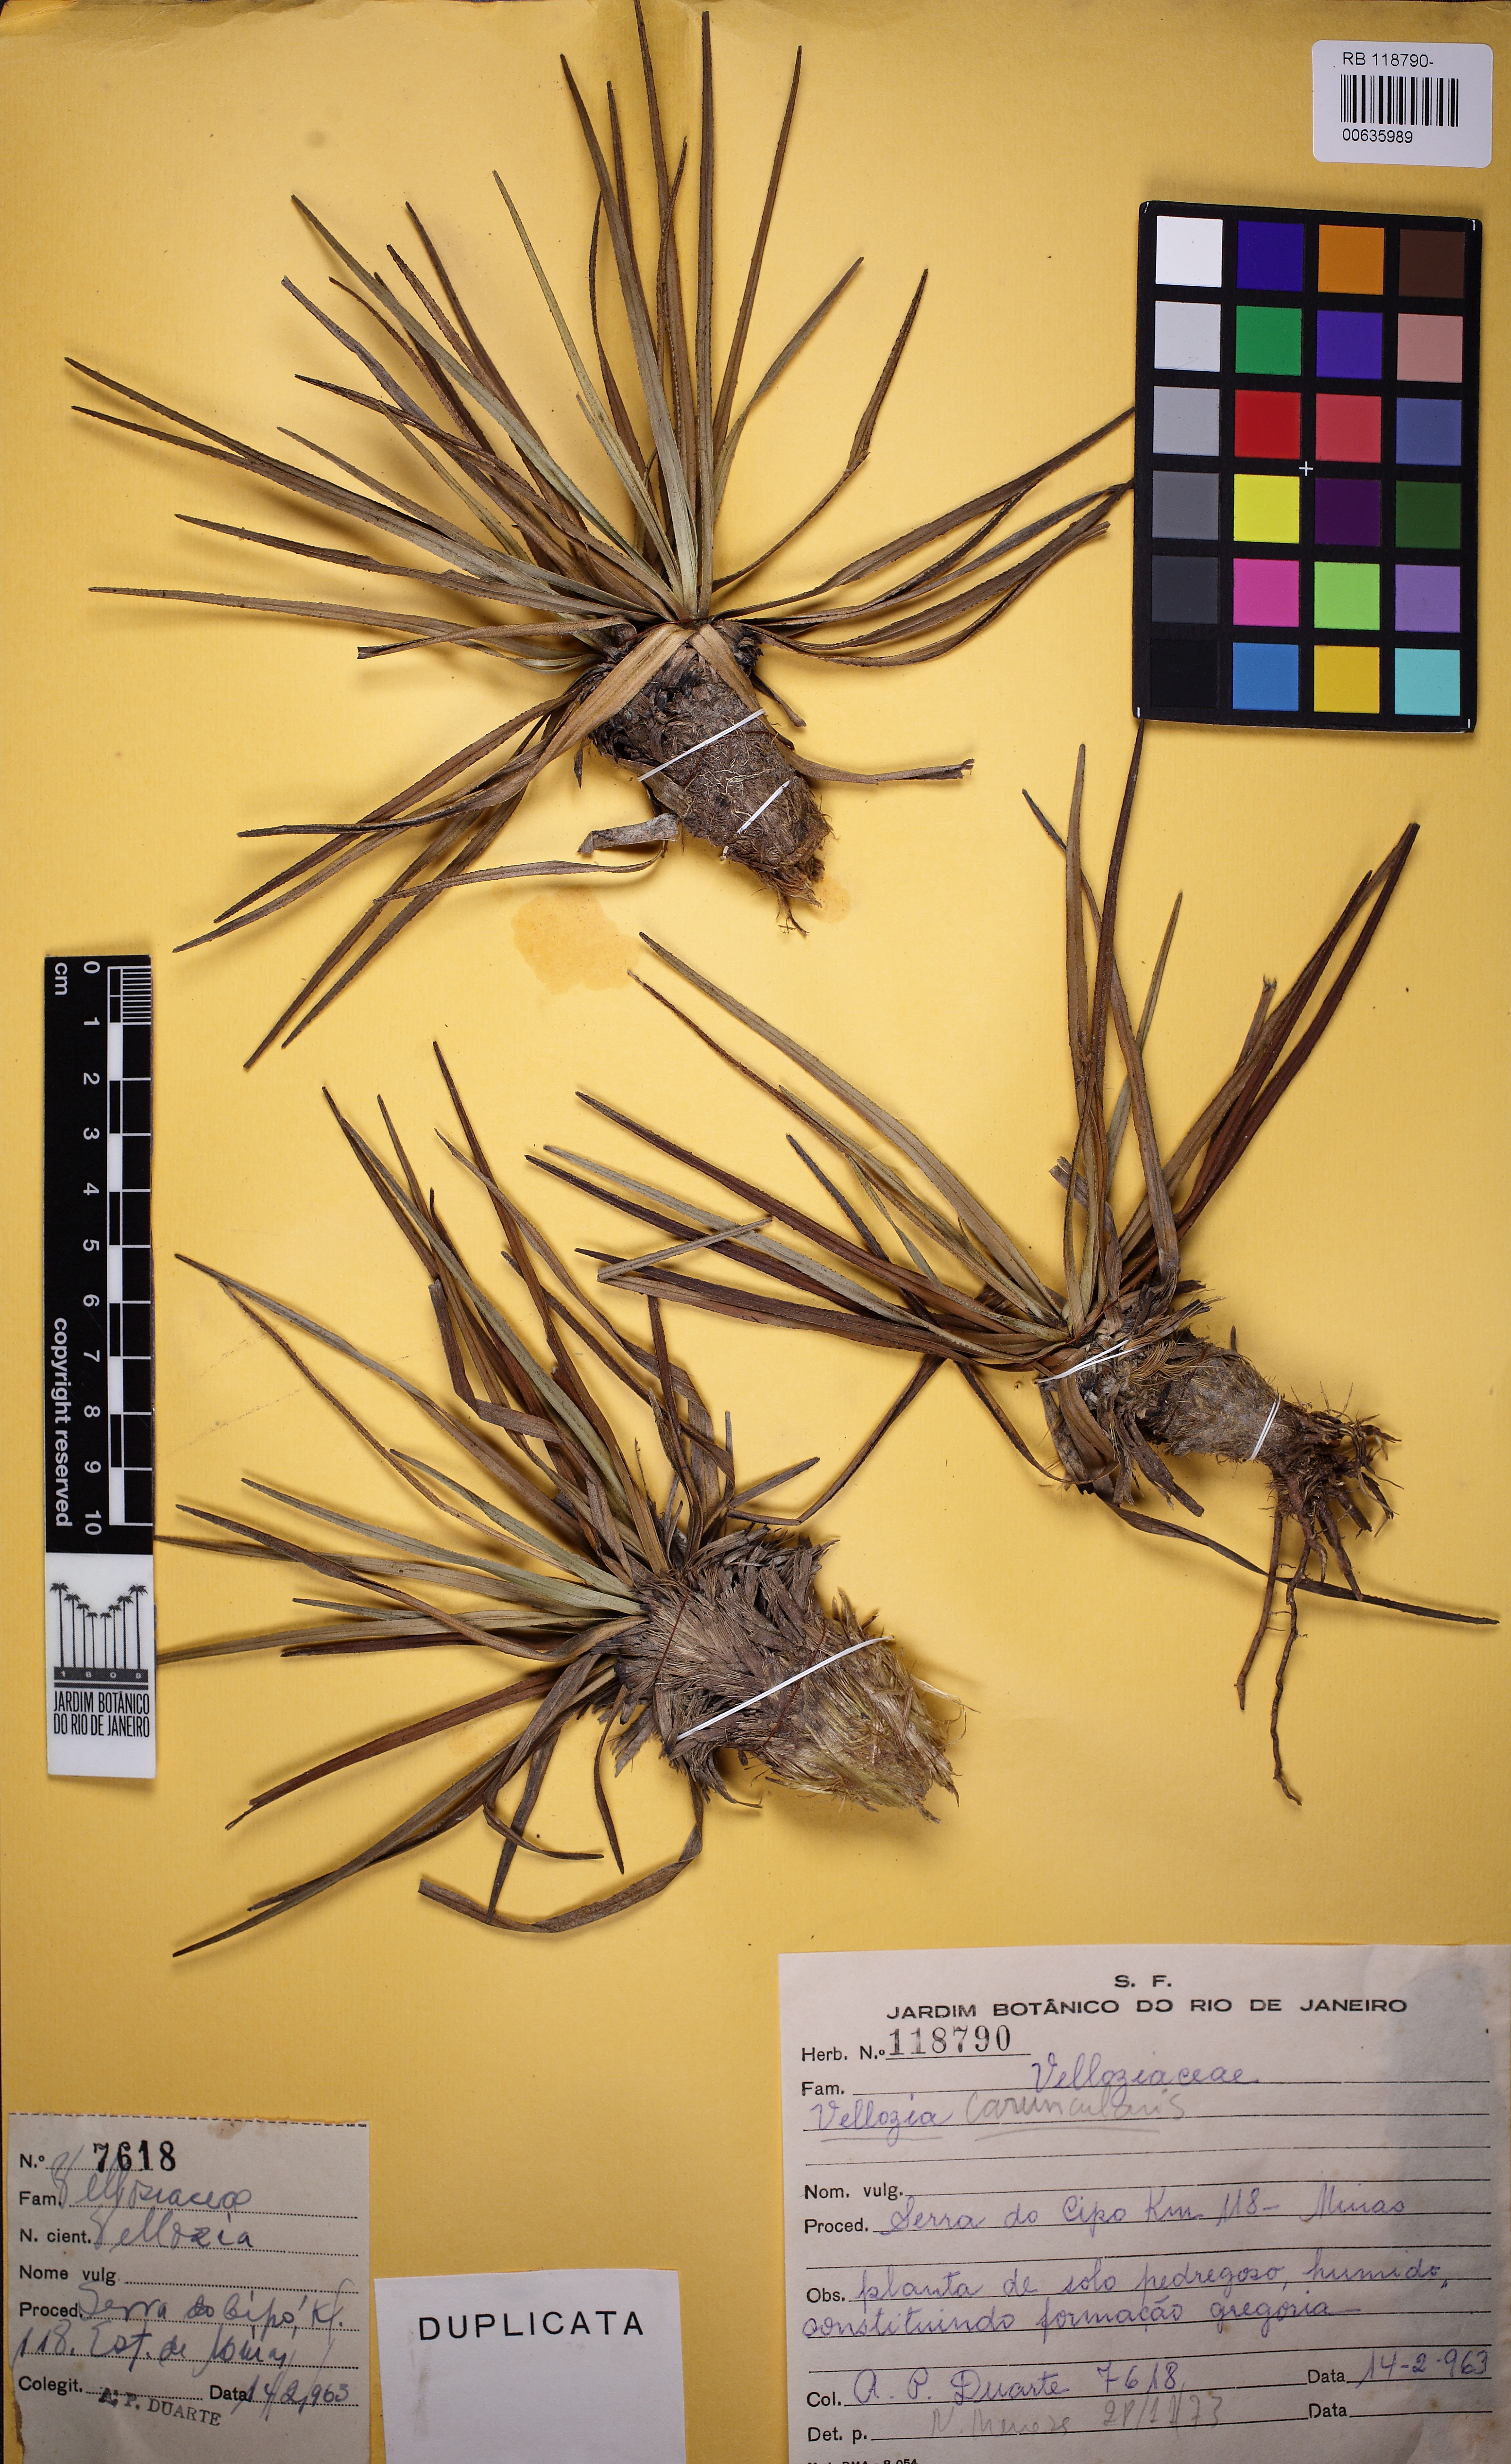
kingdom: Plantae
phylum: Tracheophyta
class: Liliopsida
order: Pandanales
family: Velloziaceae
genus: Vellozia
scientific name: Vellozia caruncularis
